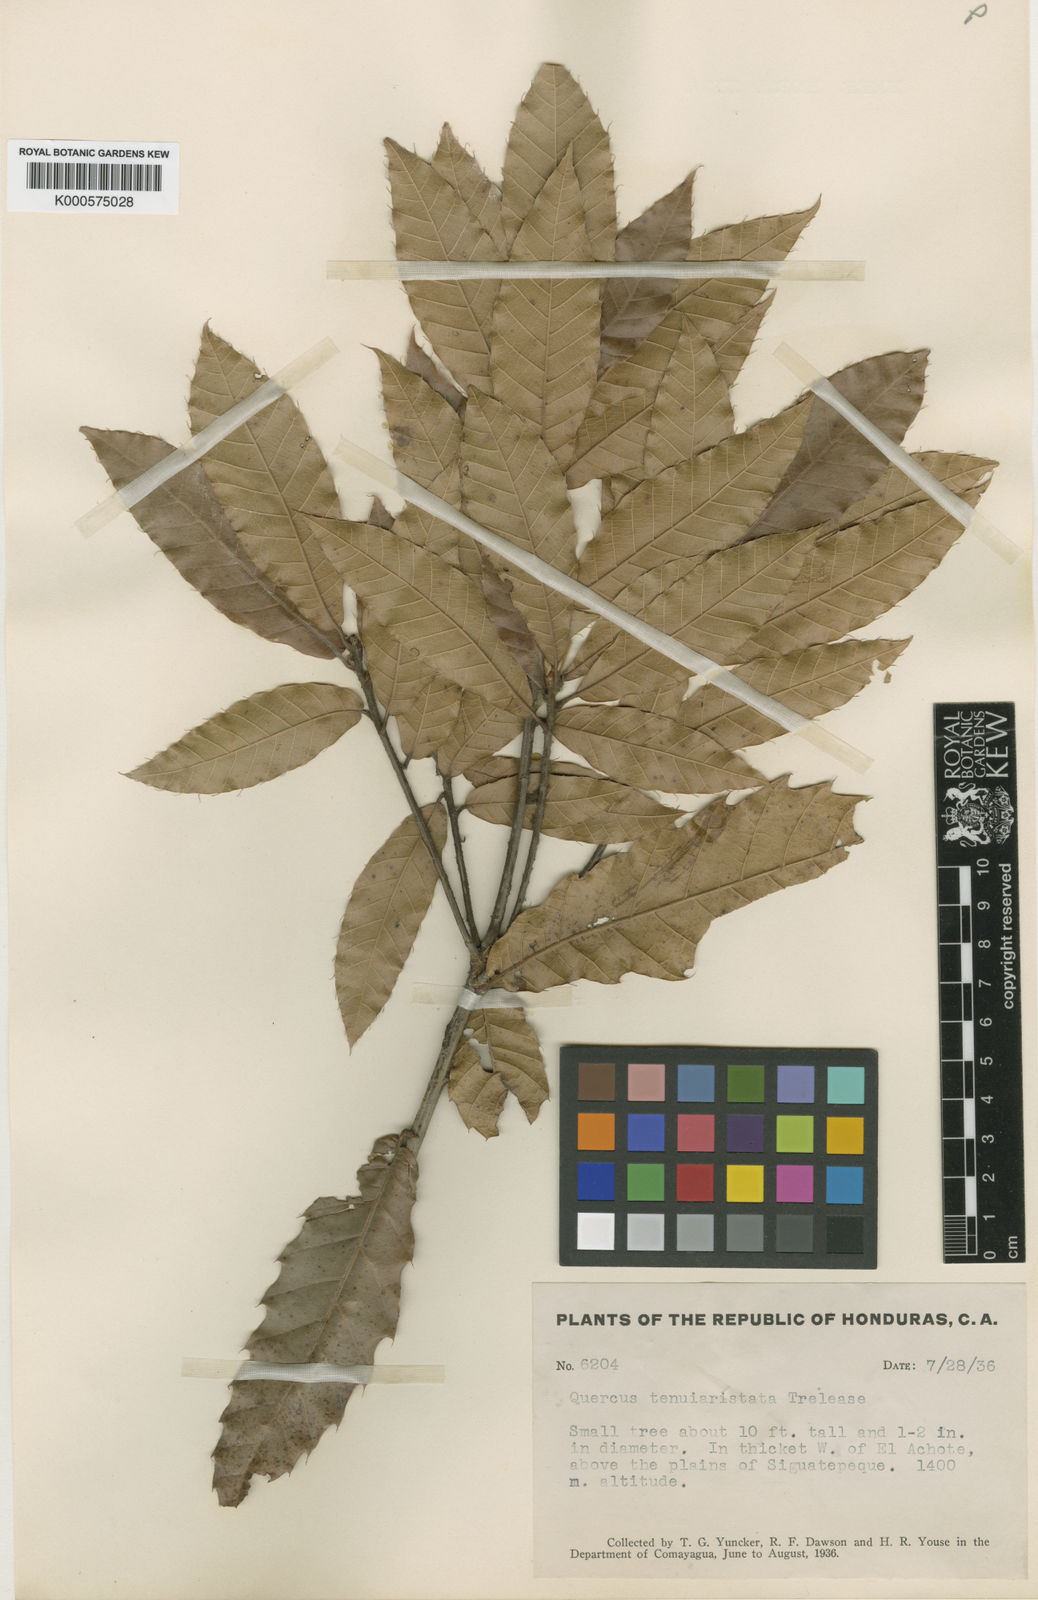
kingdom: Plantae
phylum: Tracheophyta
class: Magnoliopsida
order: Fagales
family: Fagaceae
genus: Quercus
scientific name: Quercus acutifolia
